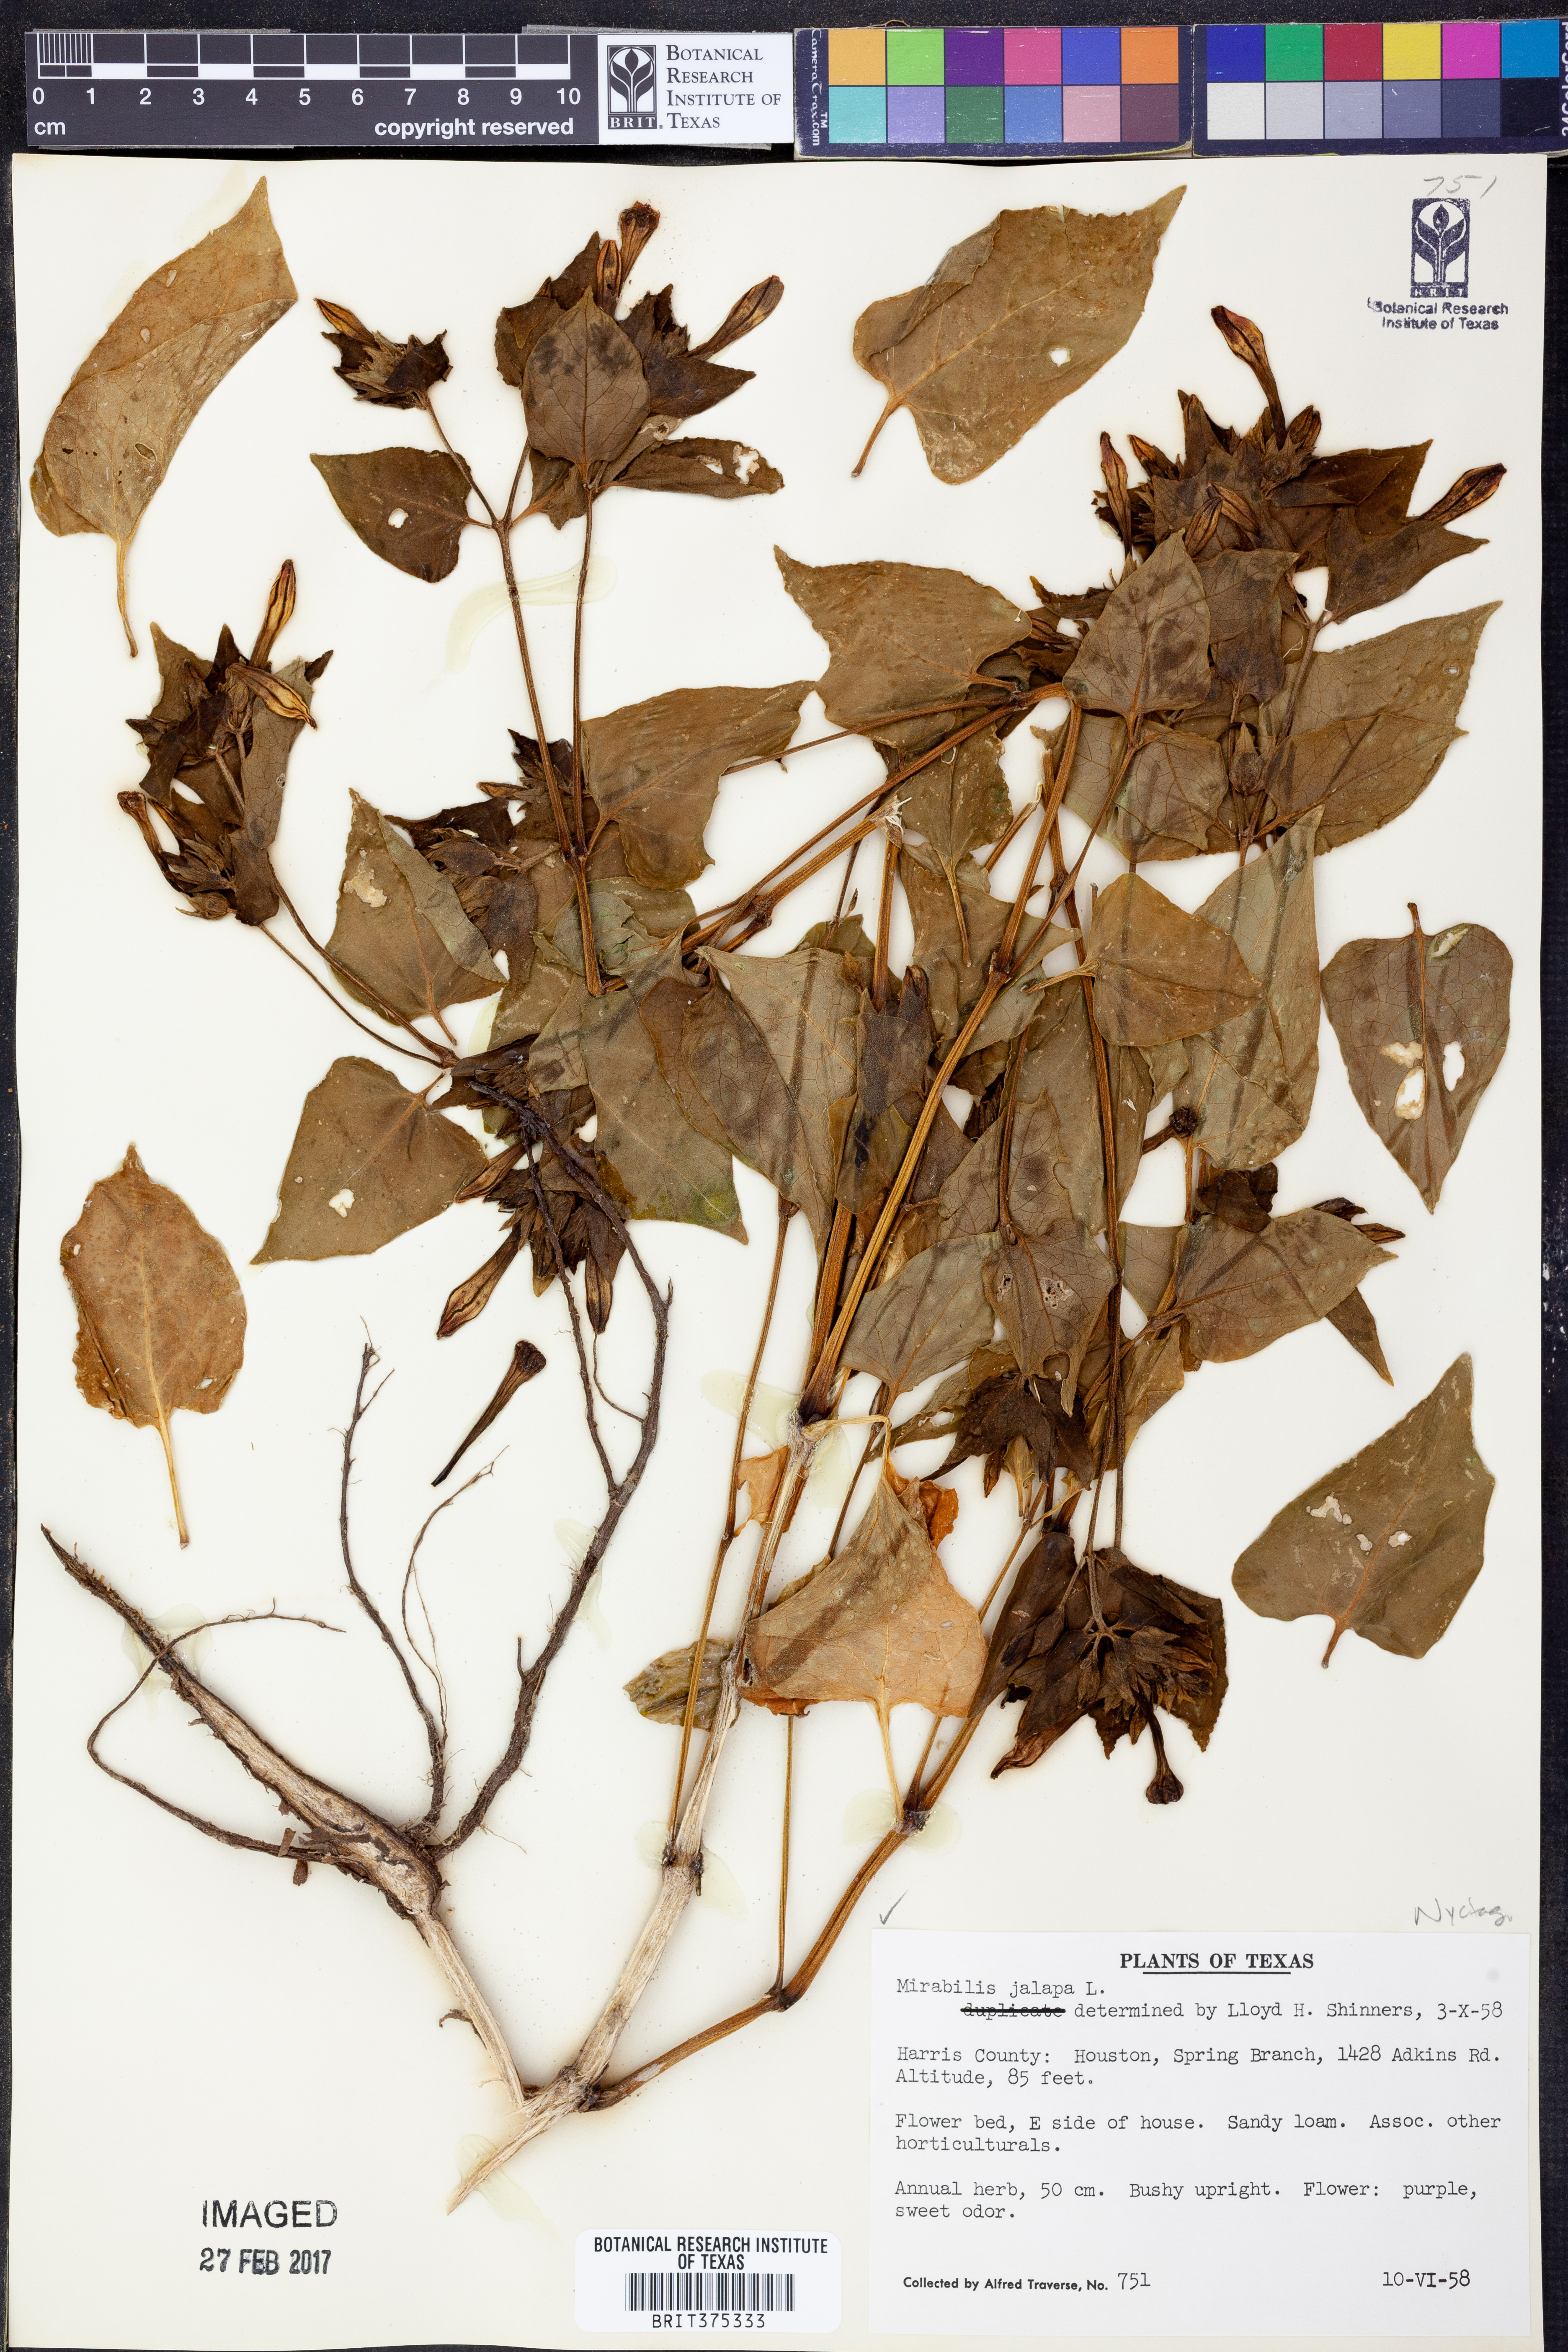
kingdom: Plantae
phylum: Tracheophyta
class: Magnoliopsida
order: Caryophyllales
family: Nyctaginaceae
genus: Mirabilis
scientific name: Mirabilis jalapa
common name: Marvel-of-peru
